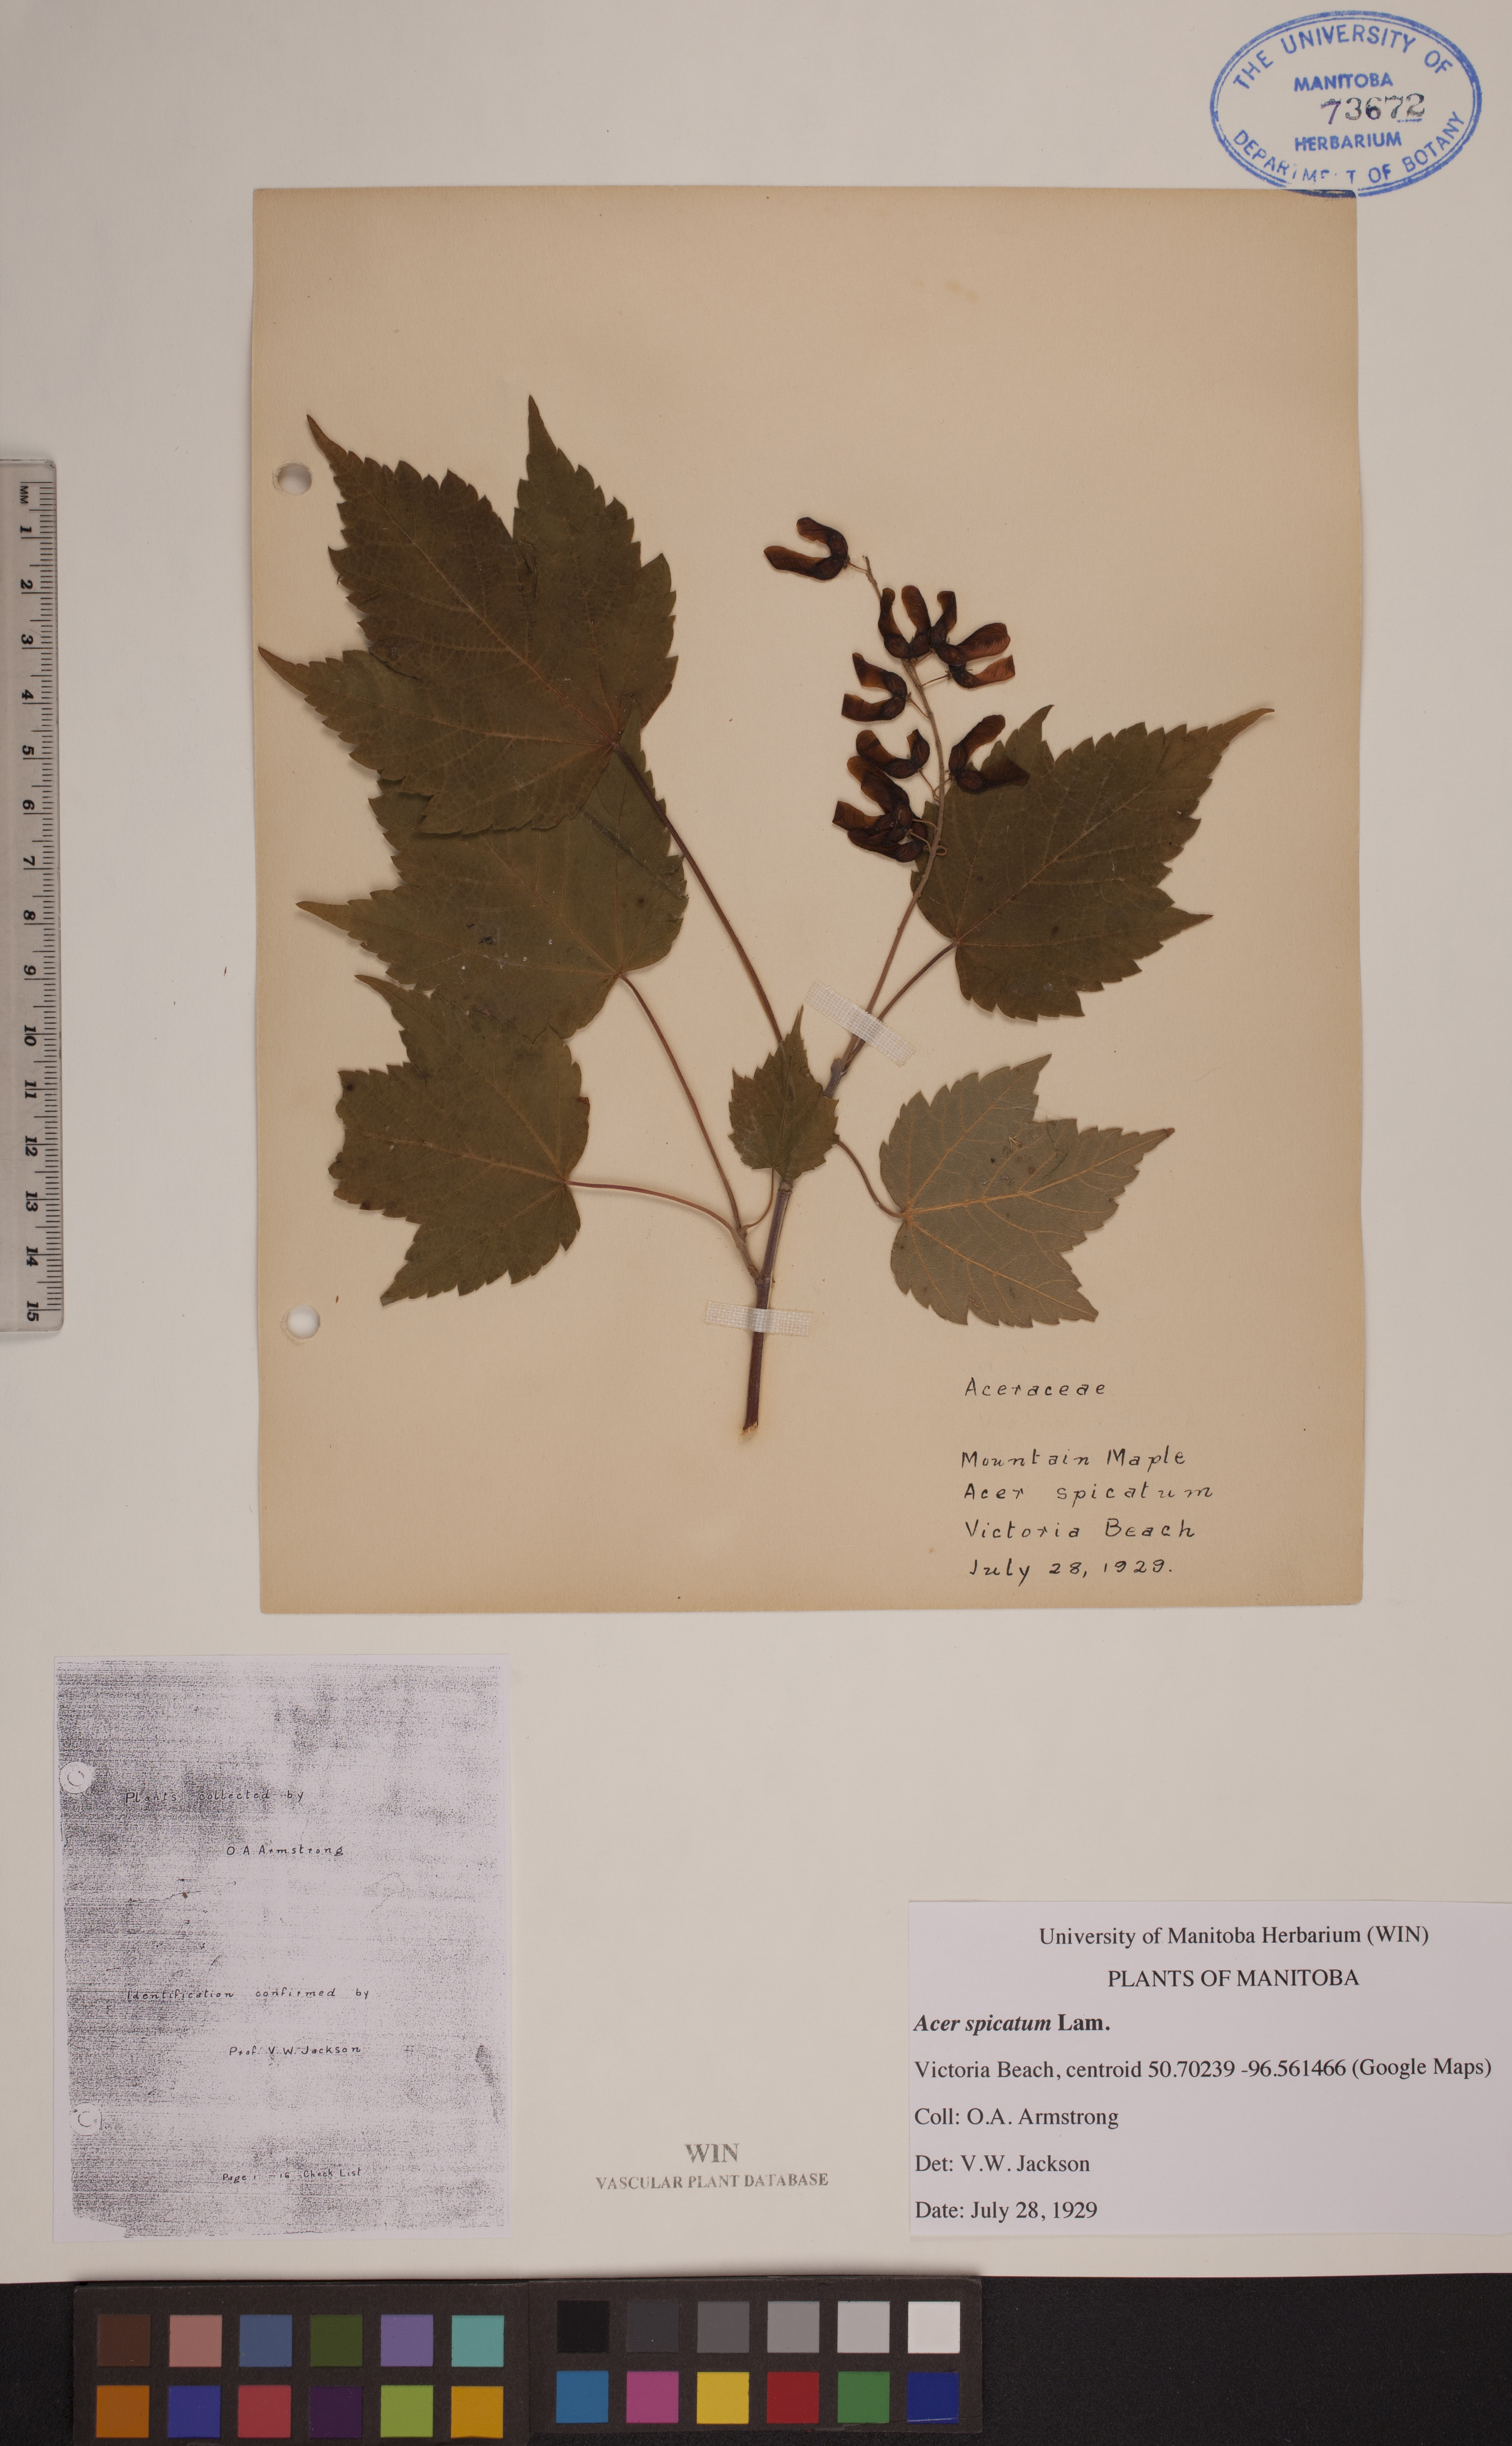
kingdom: Plantae
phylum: Tracheophyta
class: Magnoliopsida
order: Sapindales
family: Sapindaceae
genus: Acer
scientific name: Acer spicatum
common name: Mountain maple
